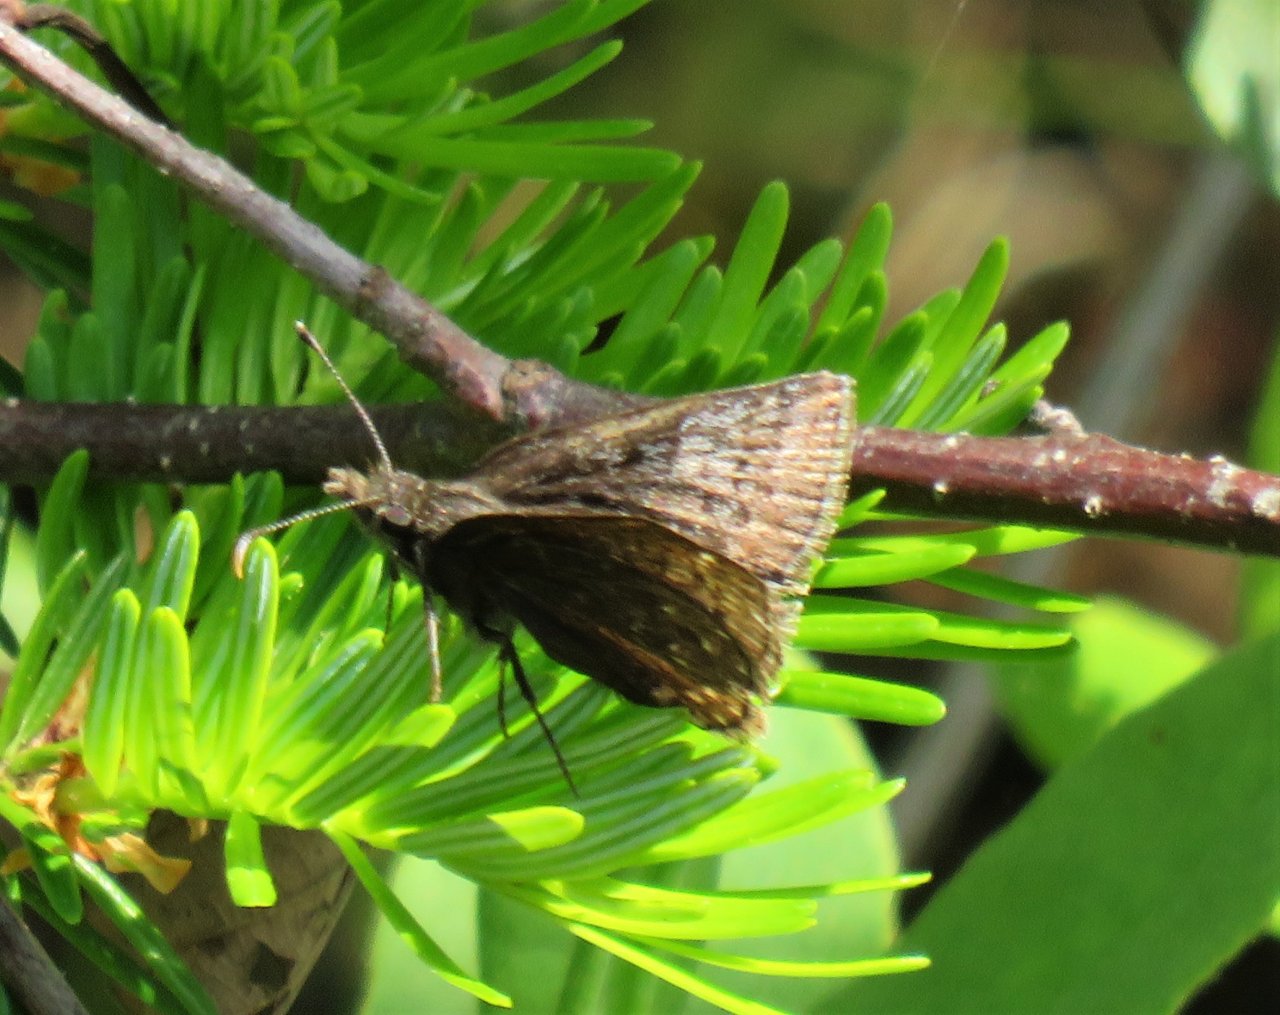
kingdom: Animalia
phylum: Arthropoda
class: Insecta
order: Lepidoptera
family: Hesperiidae
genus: Erynnis
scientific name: Erynnis icelus
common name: Dreamy Duskywing
